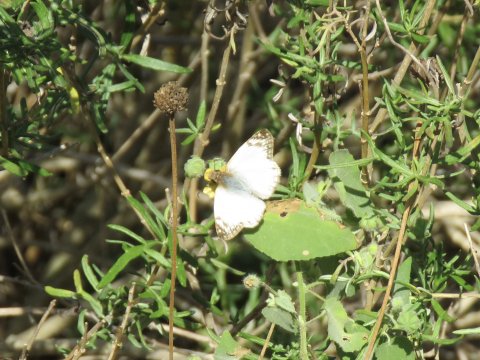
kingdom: Animalia
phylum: Arthropoda
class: Insecta
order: Lepidoptera
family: Hesperiidae
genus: Heliopetes
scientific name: Heliopetes laviana
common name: Laviana White-Skipper
